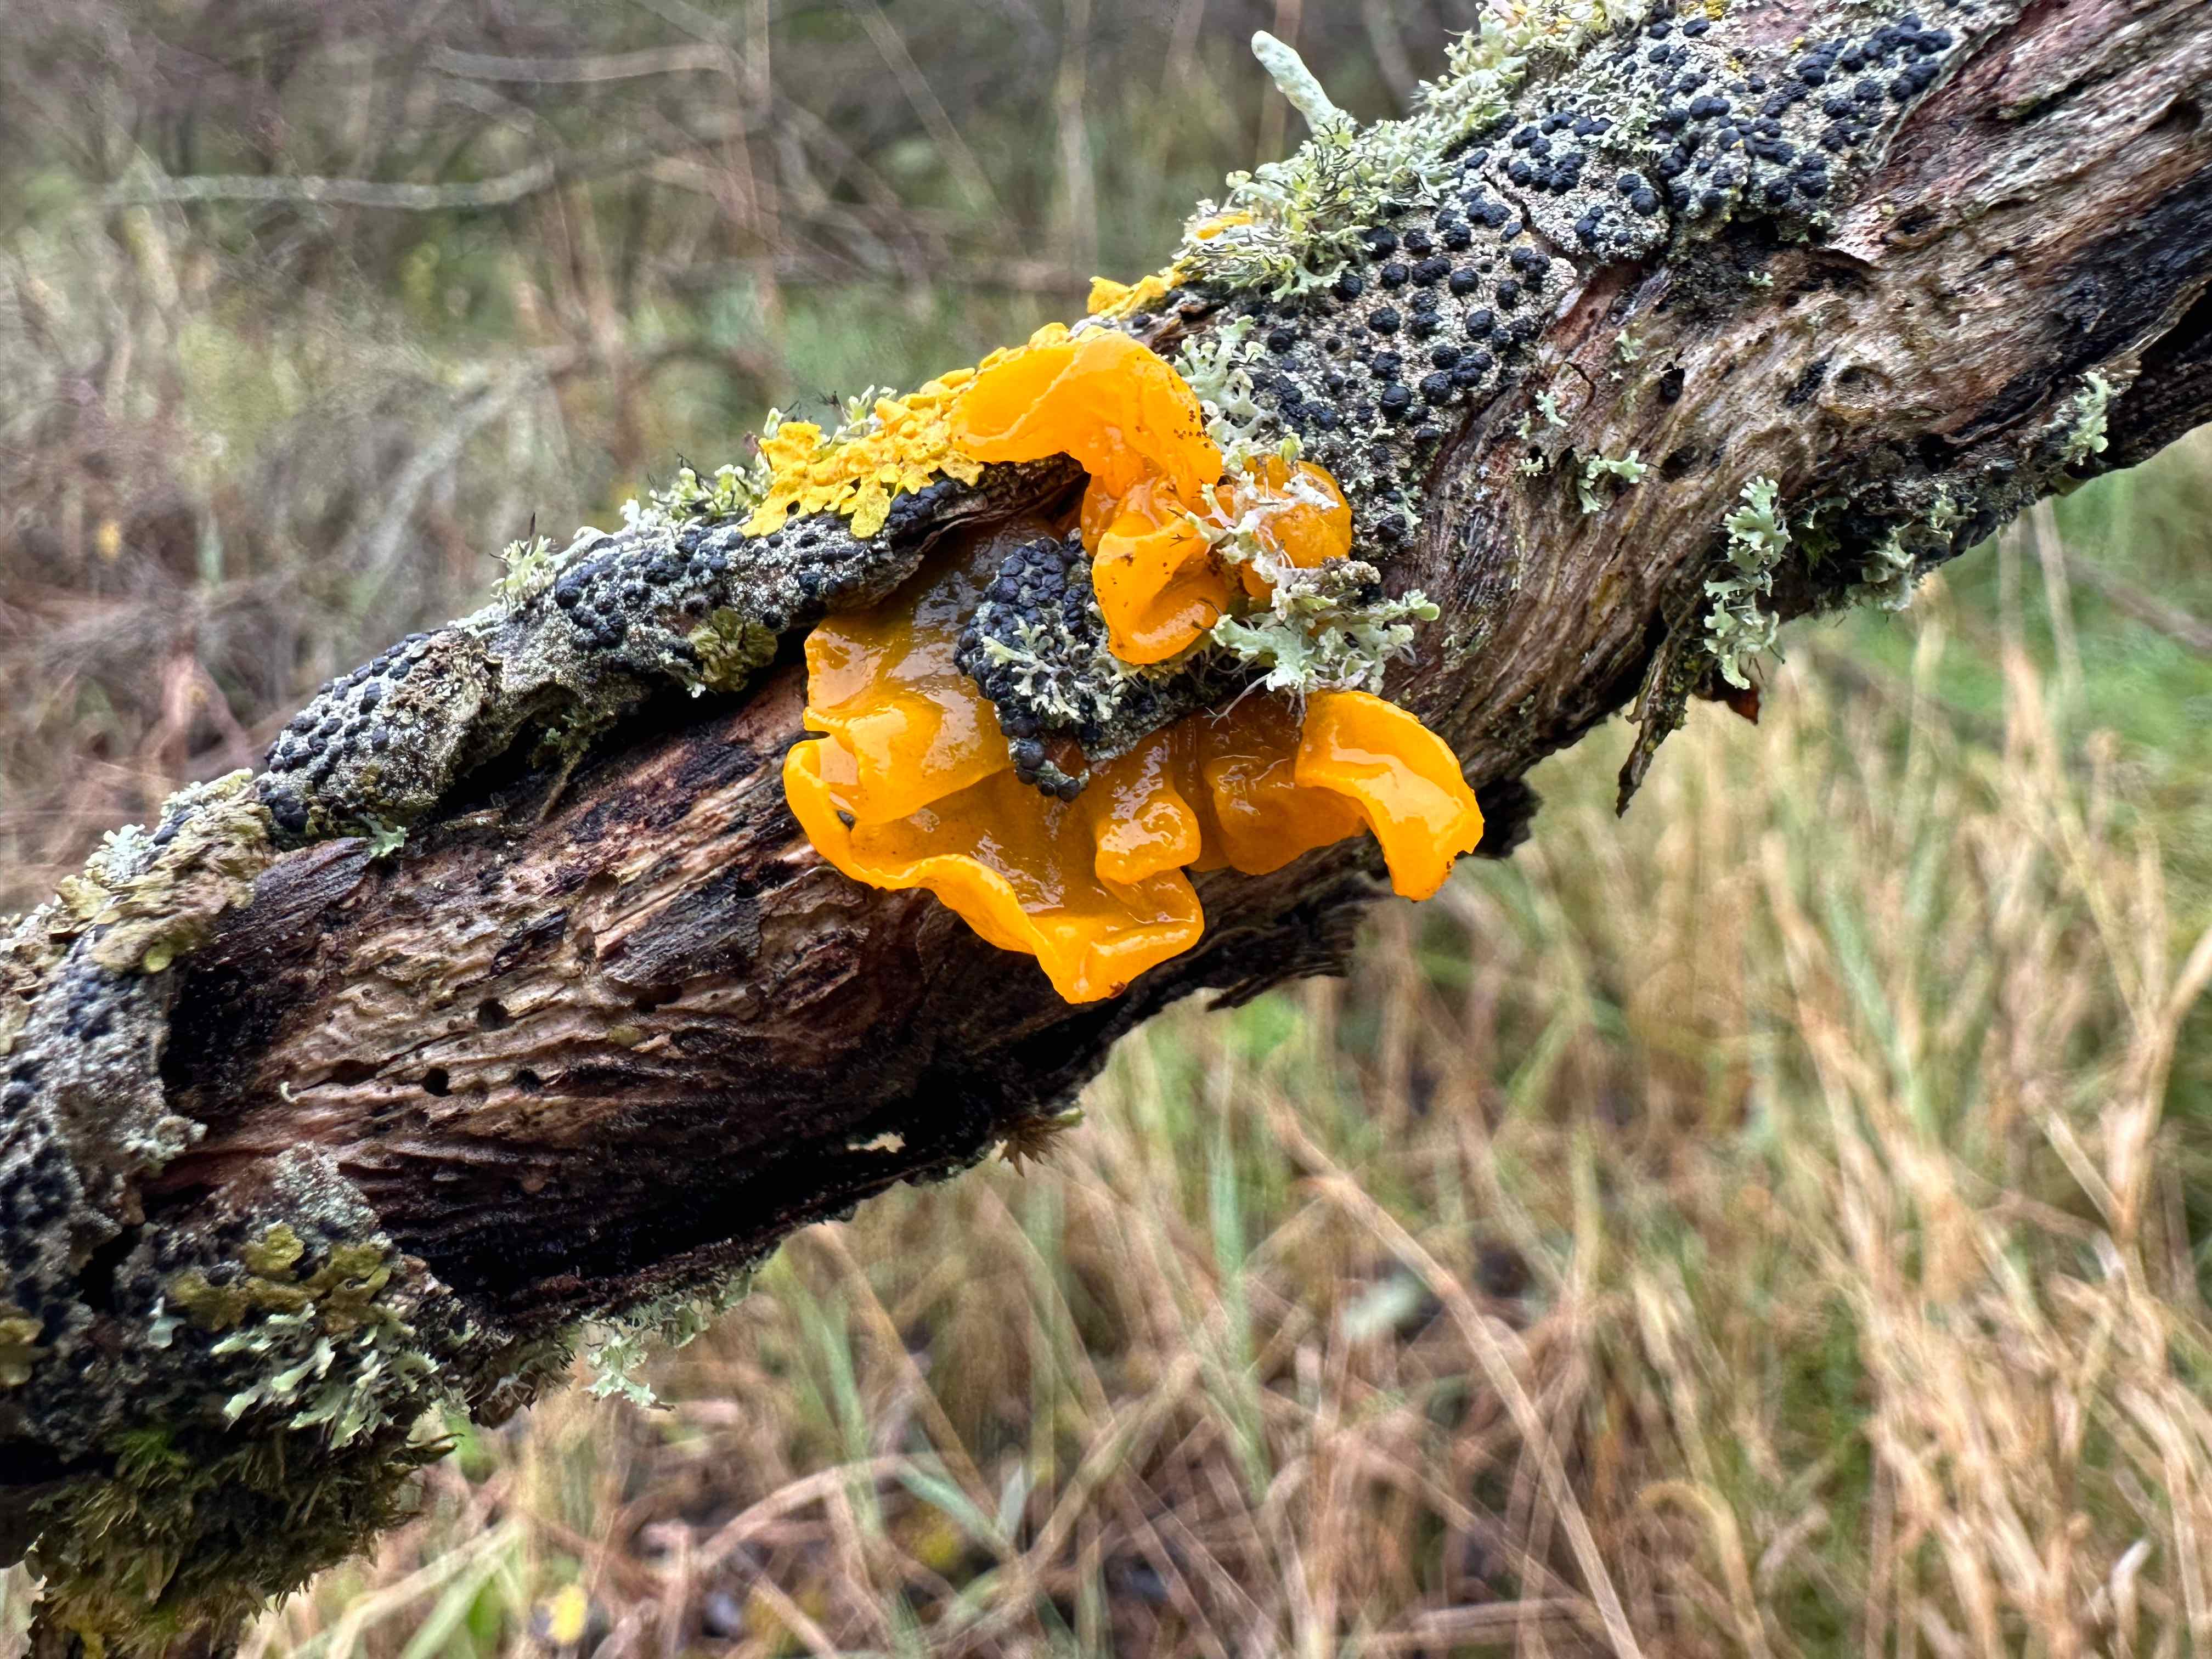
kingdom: Fungi
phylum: Basidiomycota
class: Tremellomycetes
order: Tremellales
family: Tremellaceae
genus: Tremella
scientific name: Tremella mesenterica
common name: gul bævresvamp
